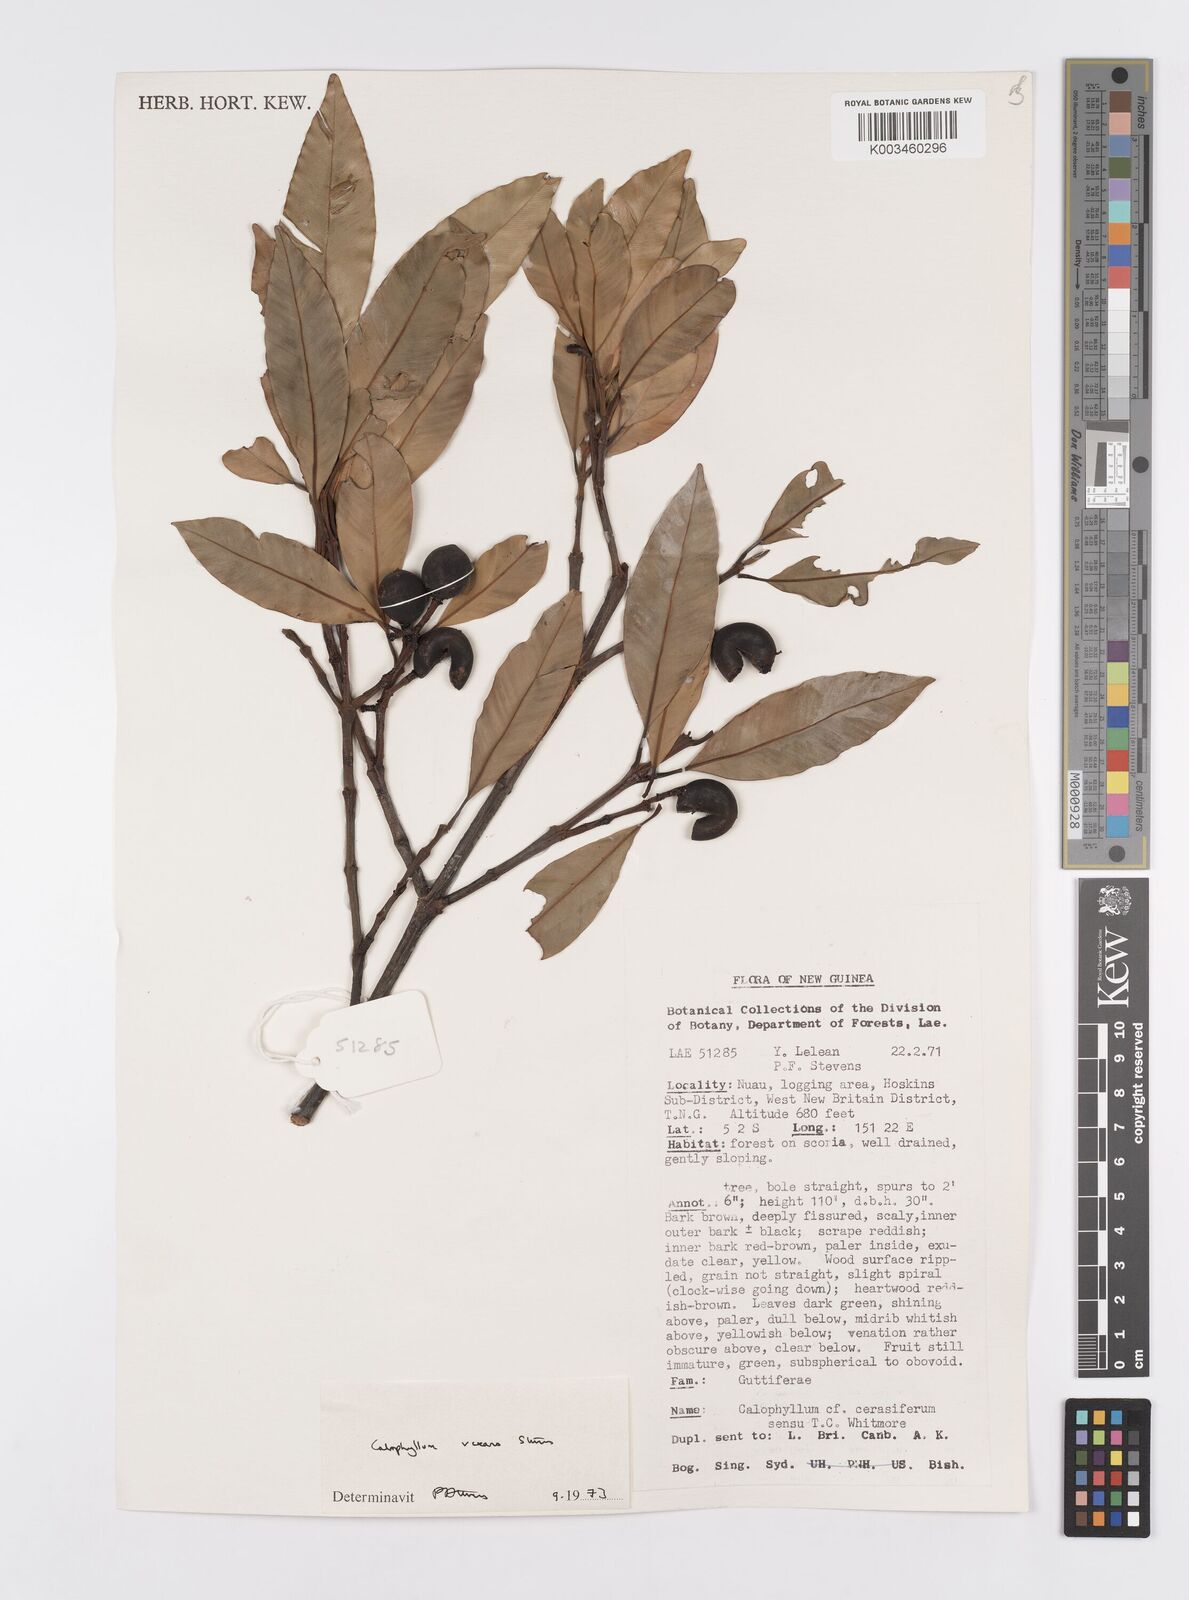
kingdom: Plantae
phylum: Tracheophyta
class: Magnoliopsida
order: Malpighiales
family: Calophyllaceae
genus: Calophyllum
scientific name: Calophyllum vexans
